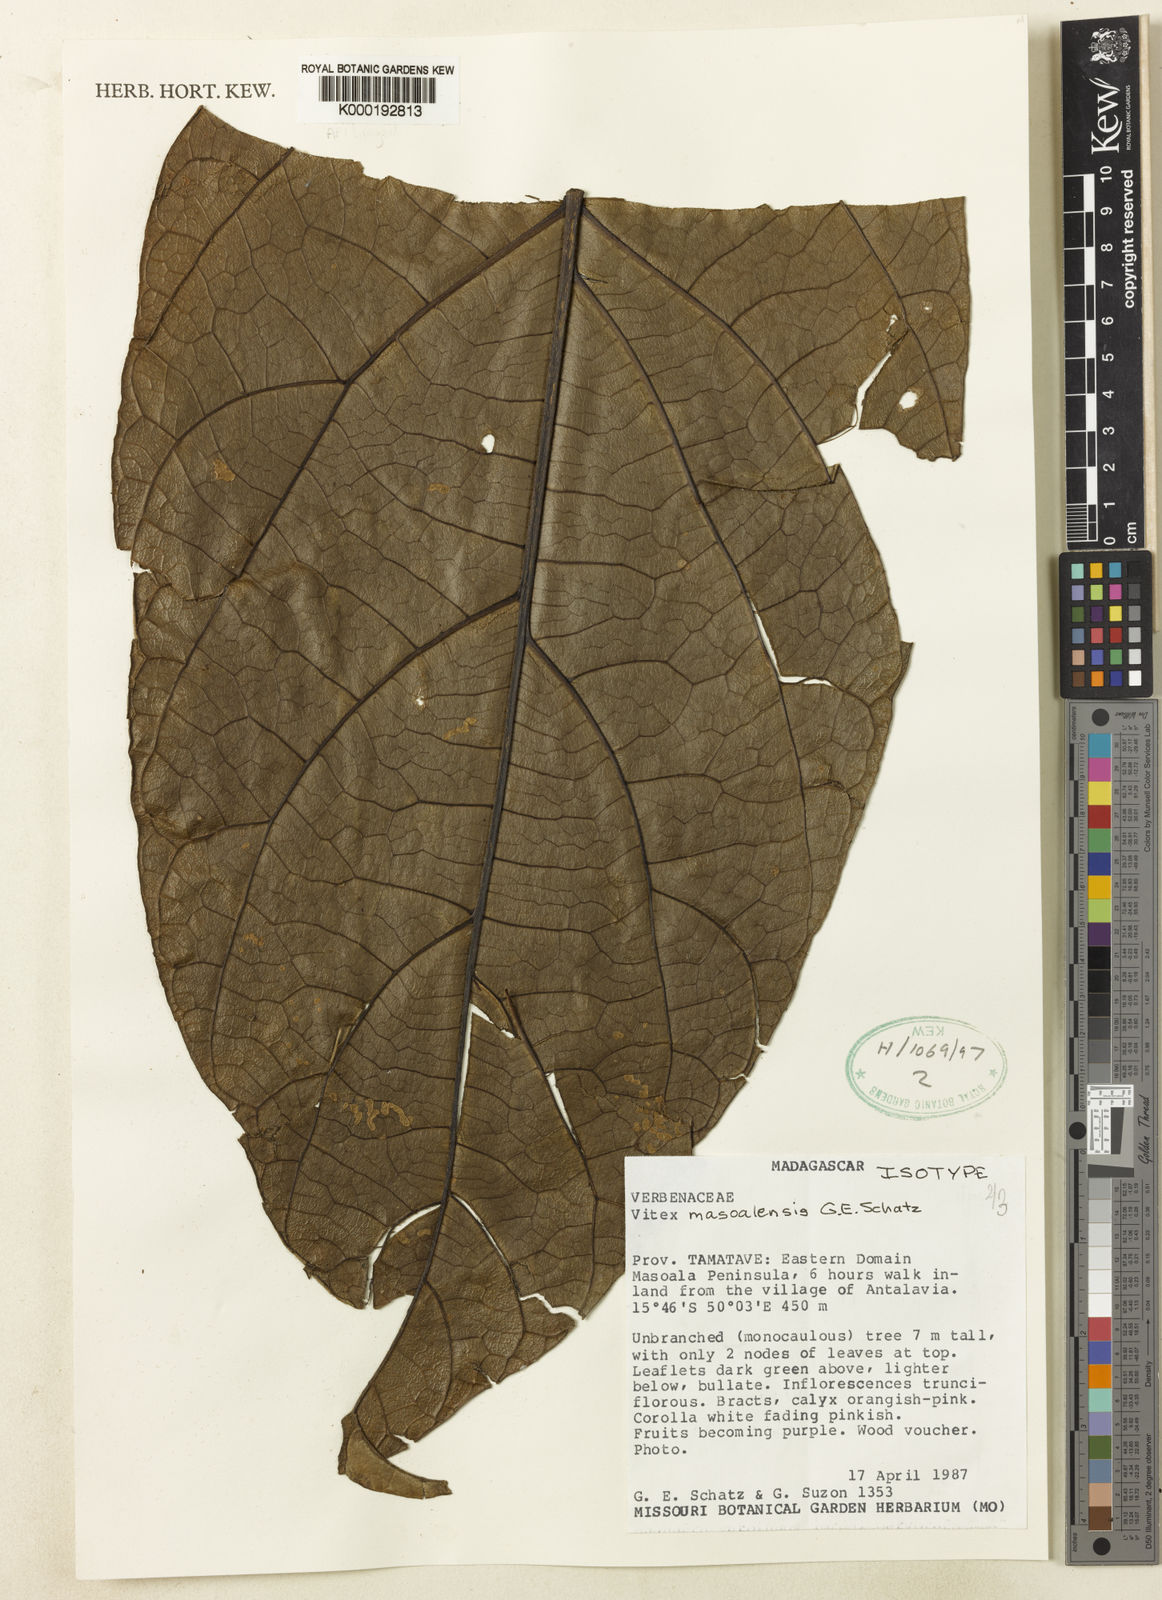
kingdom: Plantae
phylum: Tracheophyta
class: Magnoliopsida
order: Lamiales
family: Lamiaceae
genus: Vitex
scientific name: Vitex masoalensis
